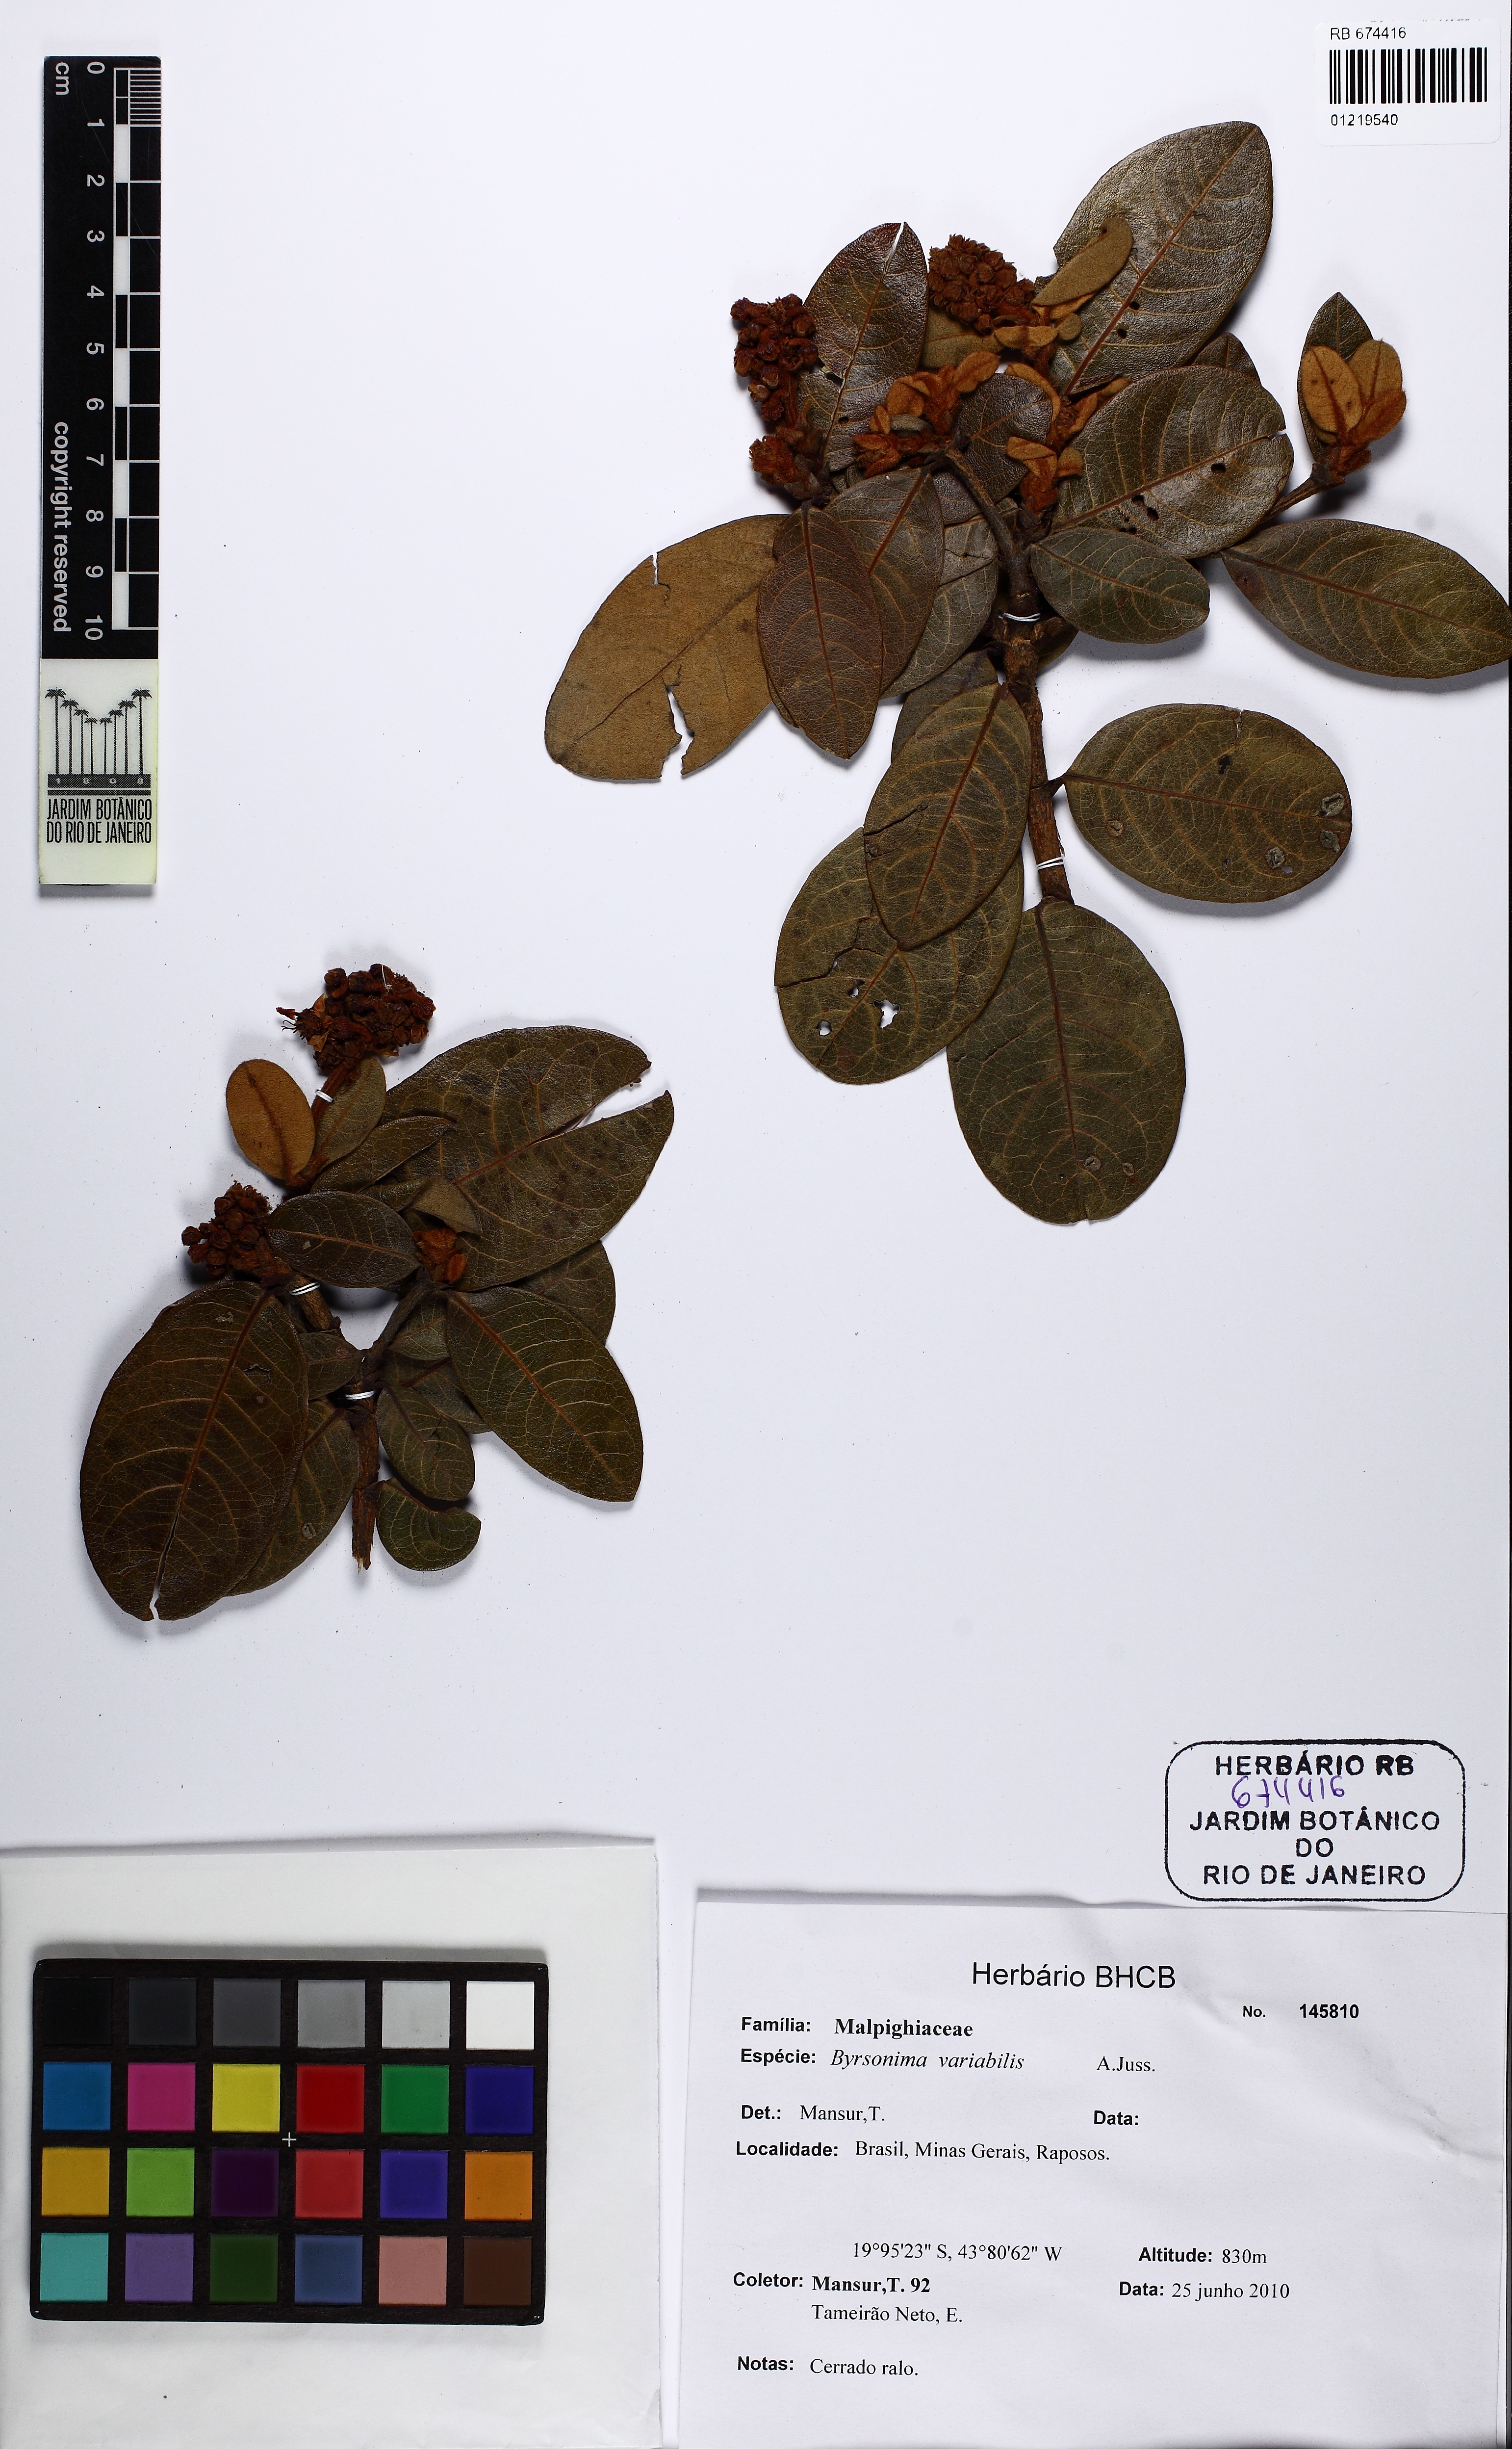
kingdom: Plantae
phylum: Tracheophyta
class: Magnoliopsida
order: Malpighiales
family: Malpighiaceae
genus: Byrsonima
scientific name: Byrsonima variabilis
